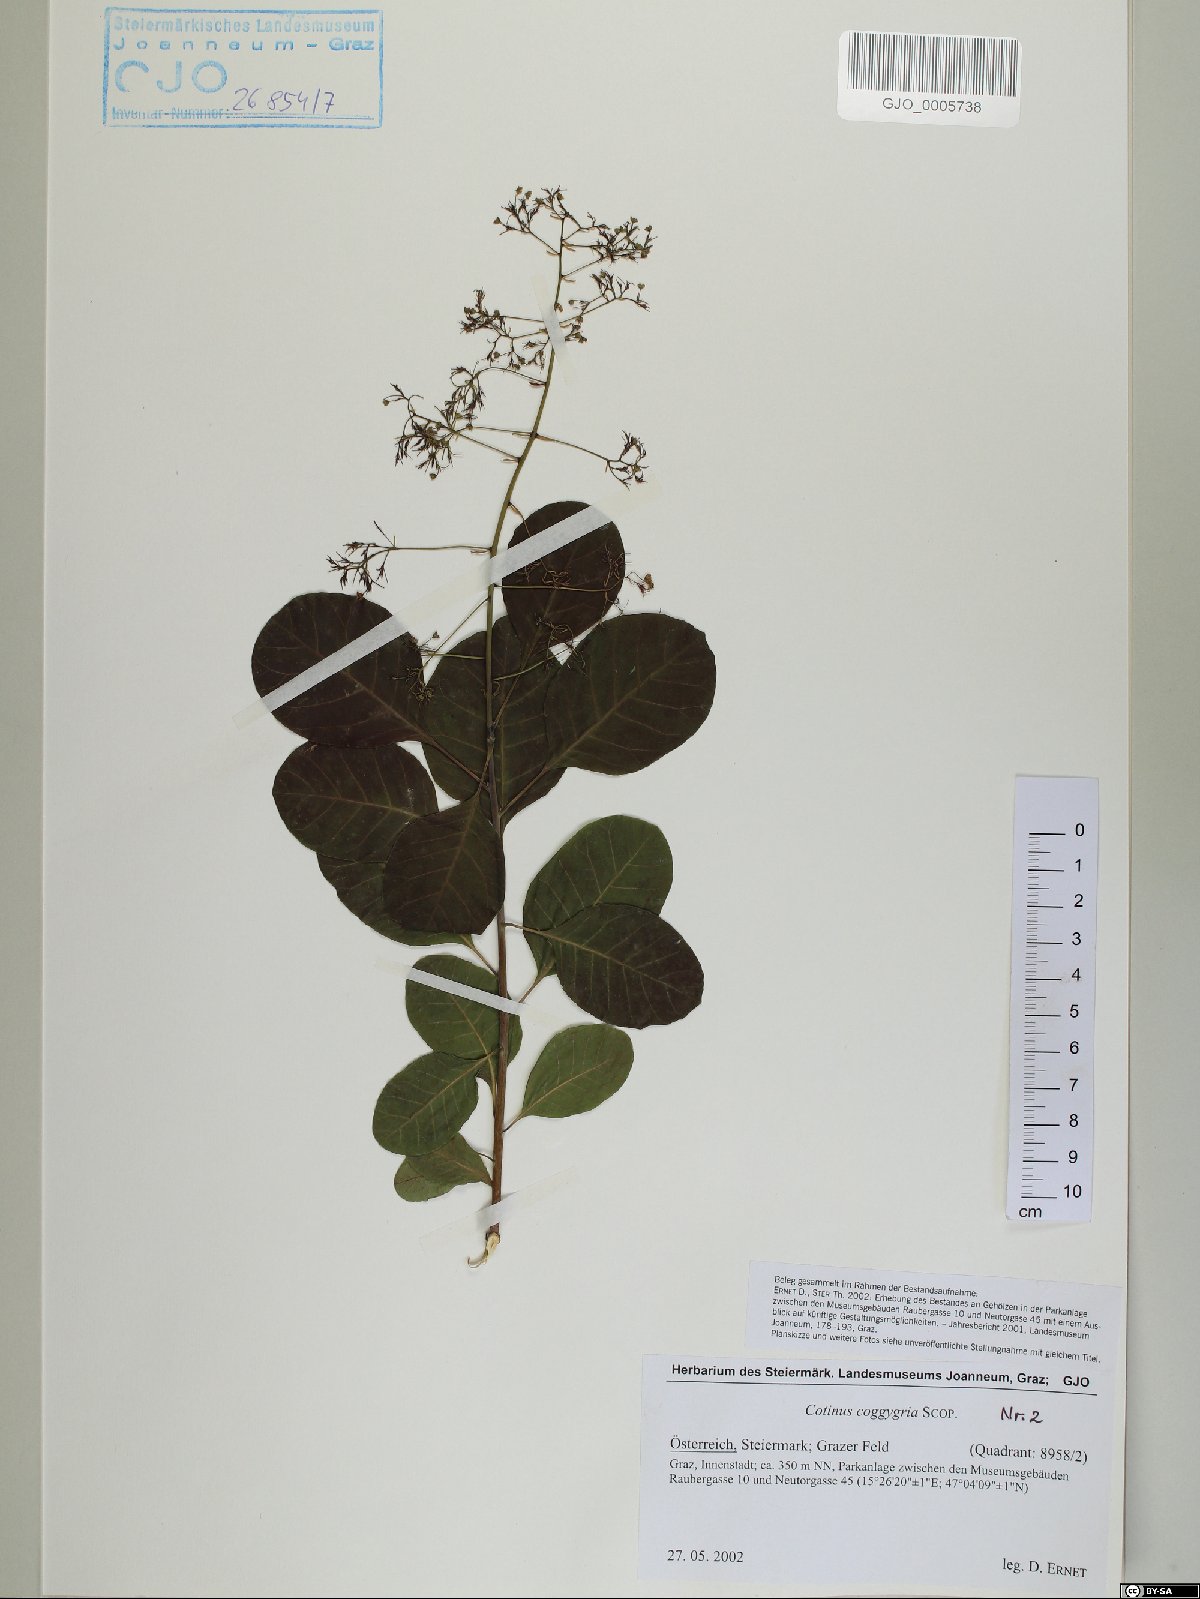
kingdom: Plantae
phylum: Tracheophyta
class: Magnoliopsida
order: Sapindales
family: Anacardiaceae
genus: Cotinus
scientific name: Cotinus coggygria
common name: Smoke-tree
